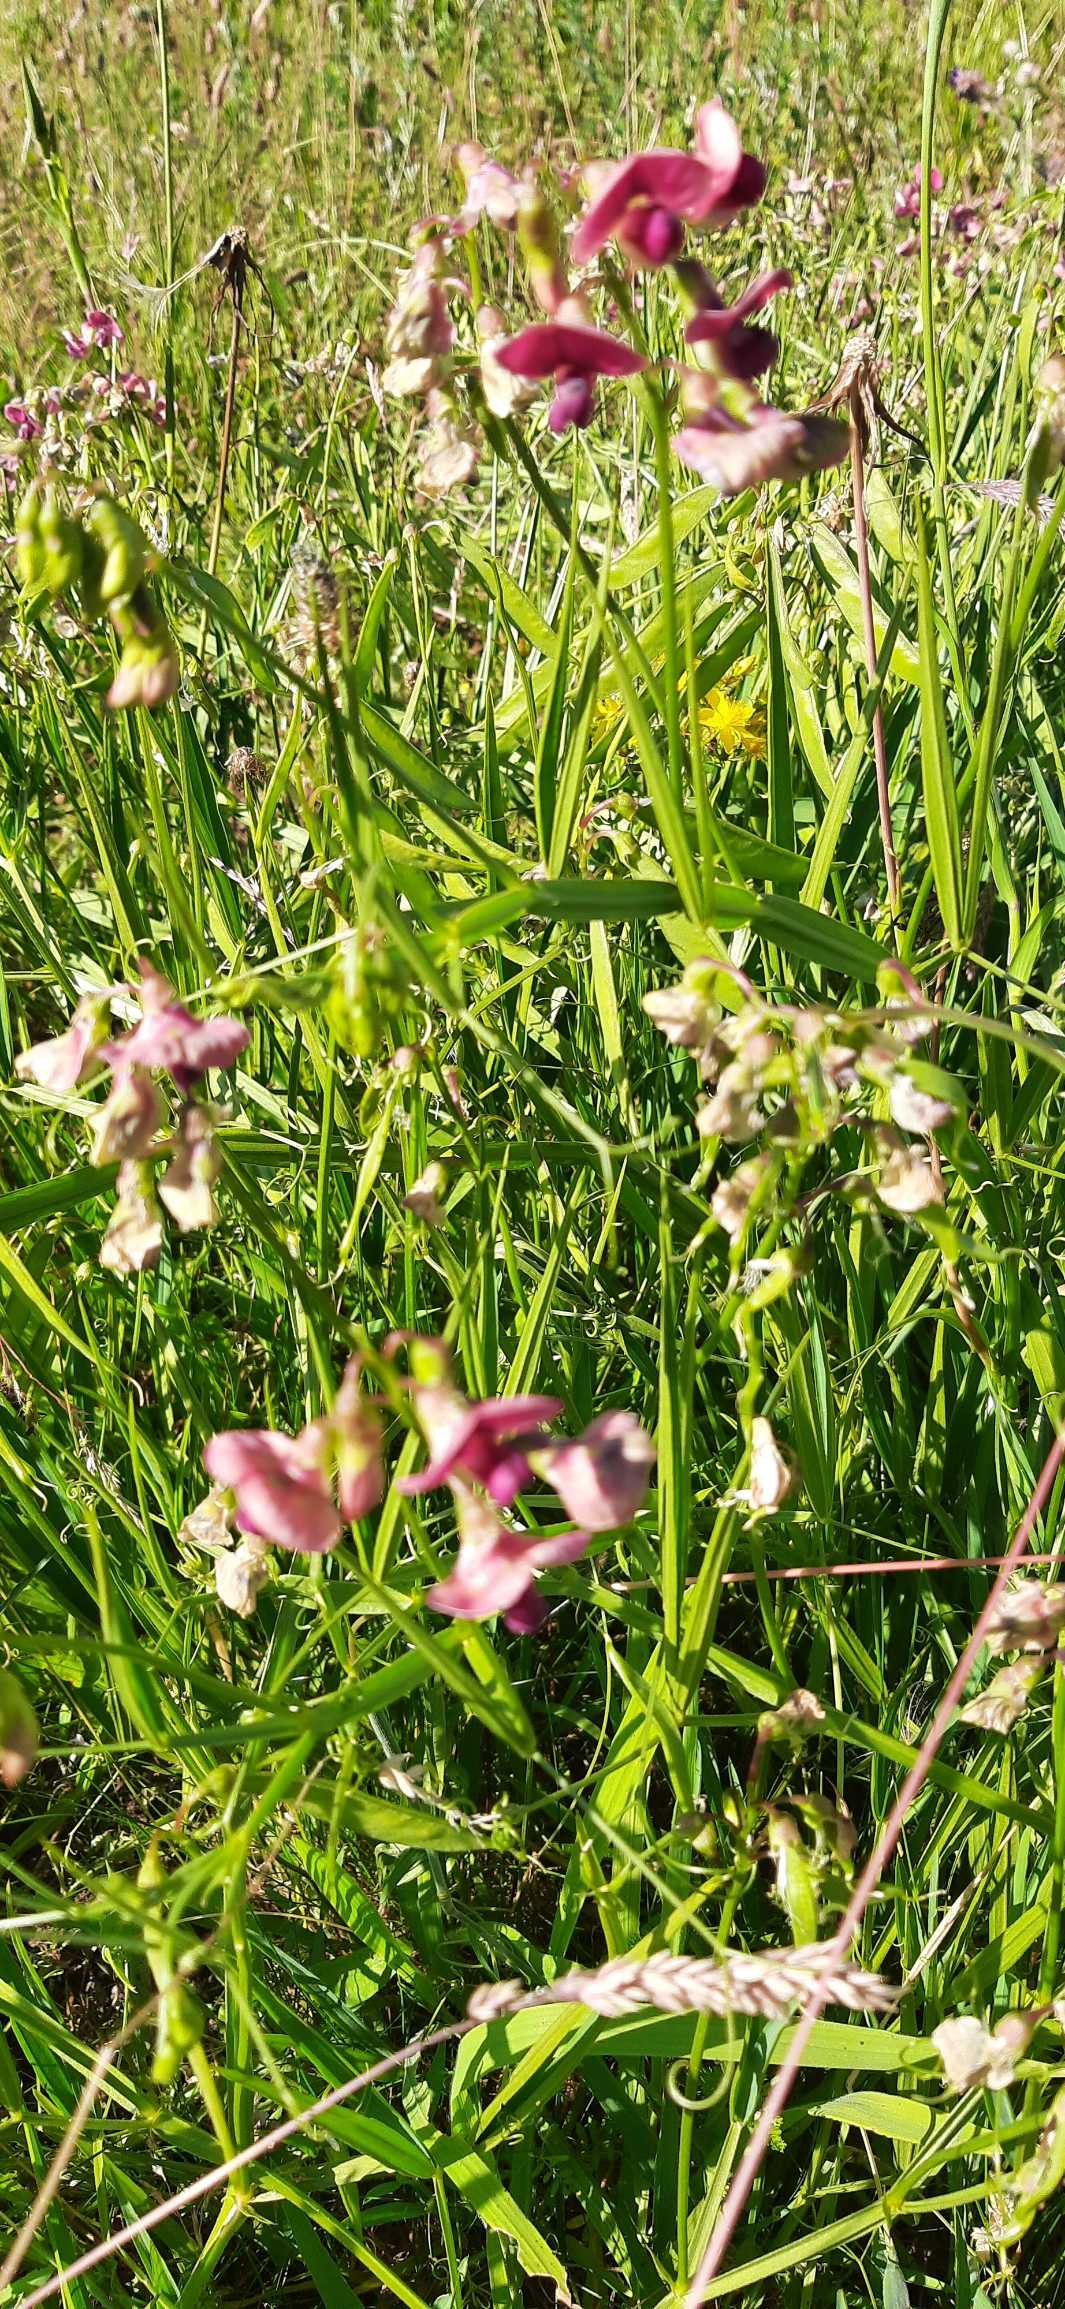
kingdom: Plantae
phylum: Tracheophyta
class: Magnoliopsida
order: Fabales
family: Fabaceae
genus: Lathyrus
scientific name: Lathyrus sylvestris
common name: Skov-fladbælg
